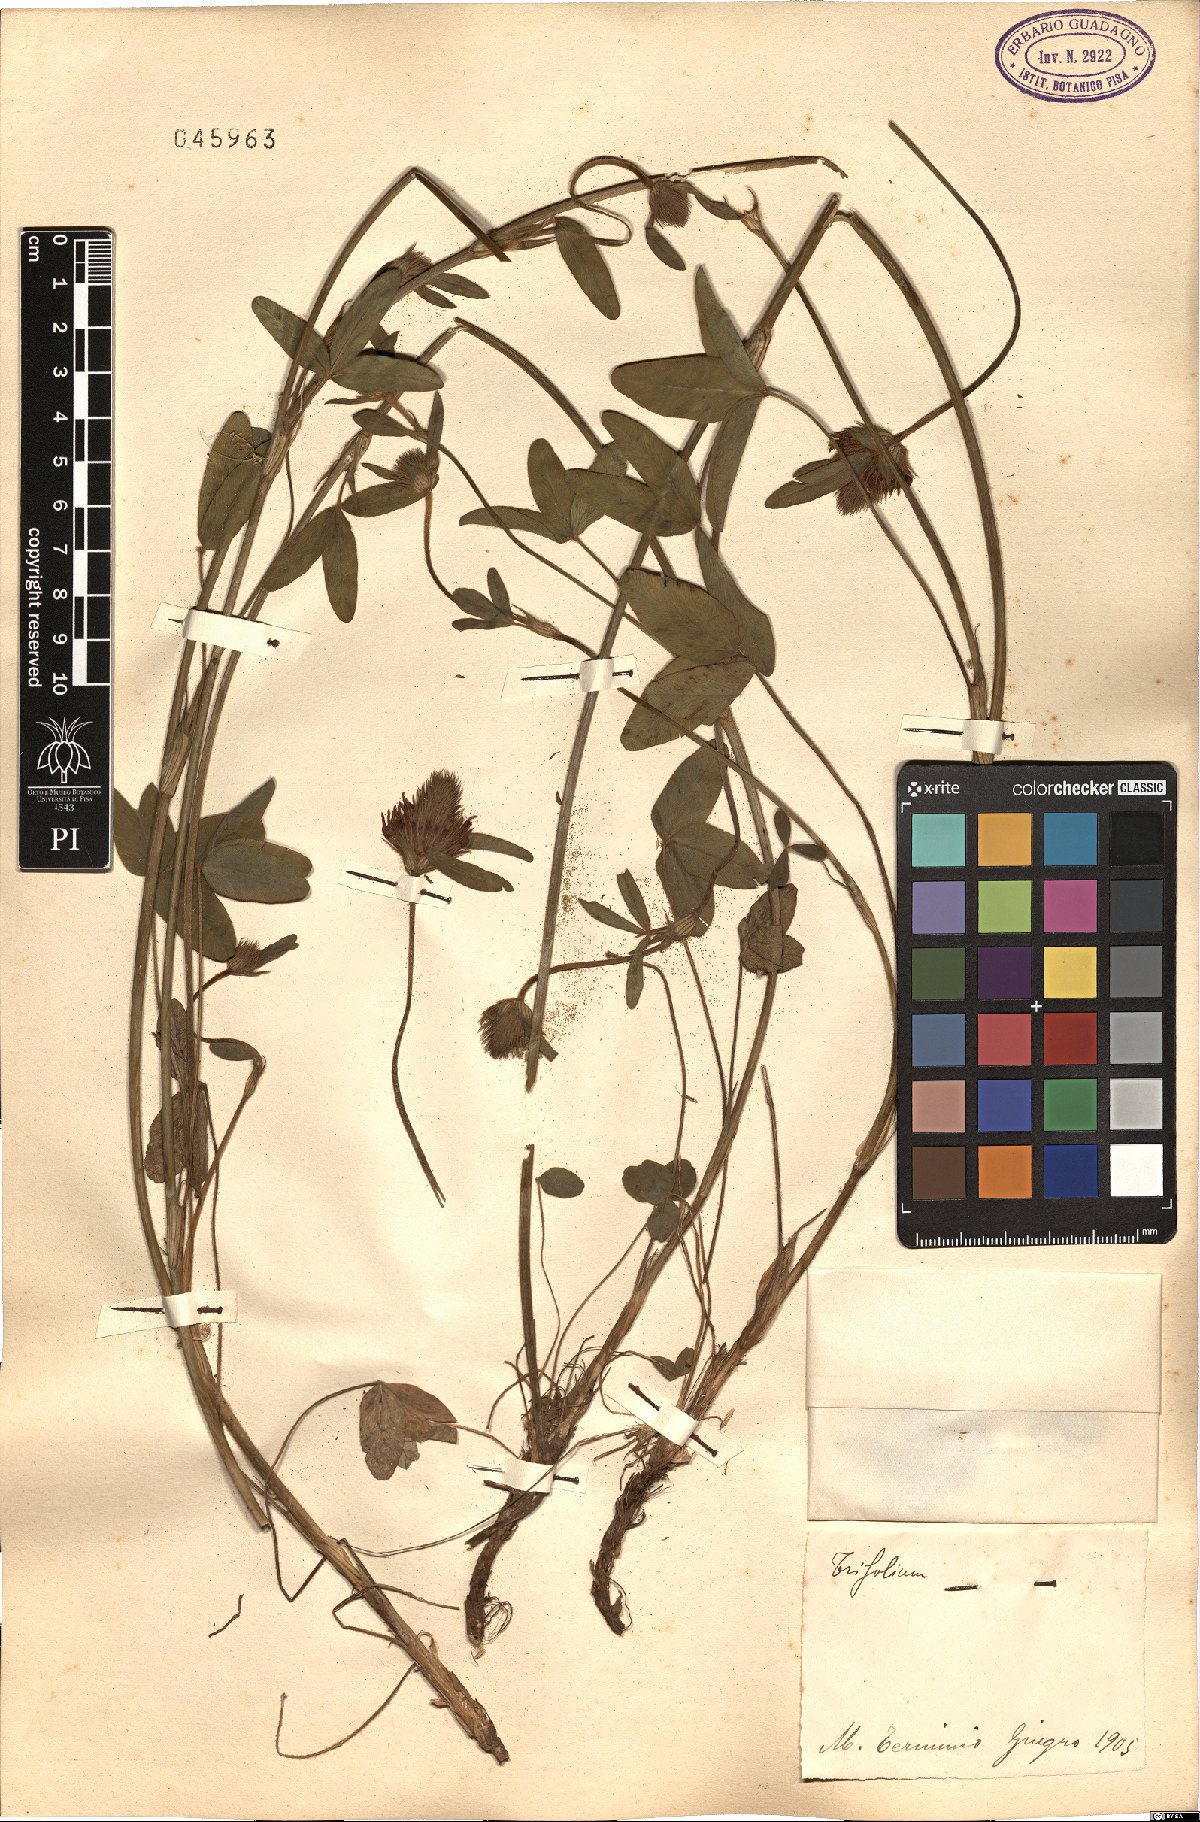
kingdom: Plantae
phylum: Tracheophyta
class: Magnoliopsida
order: Fabales
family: Fabaceae
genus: Trifolium
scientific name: Trifolium
